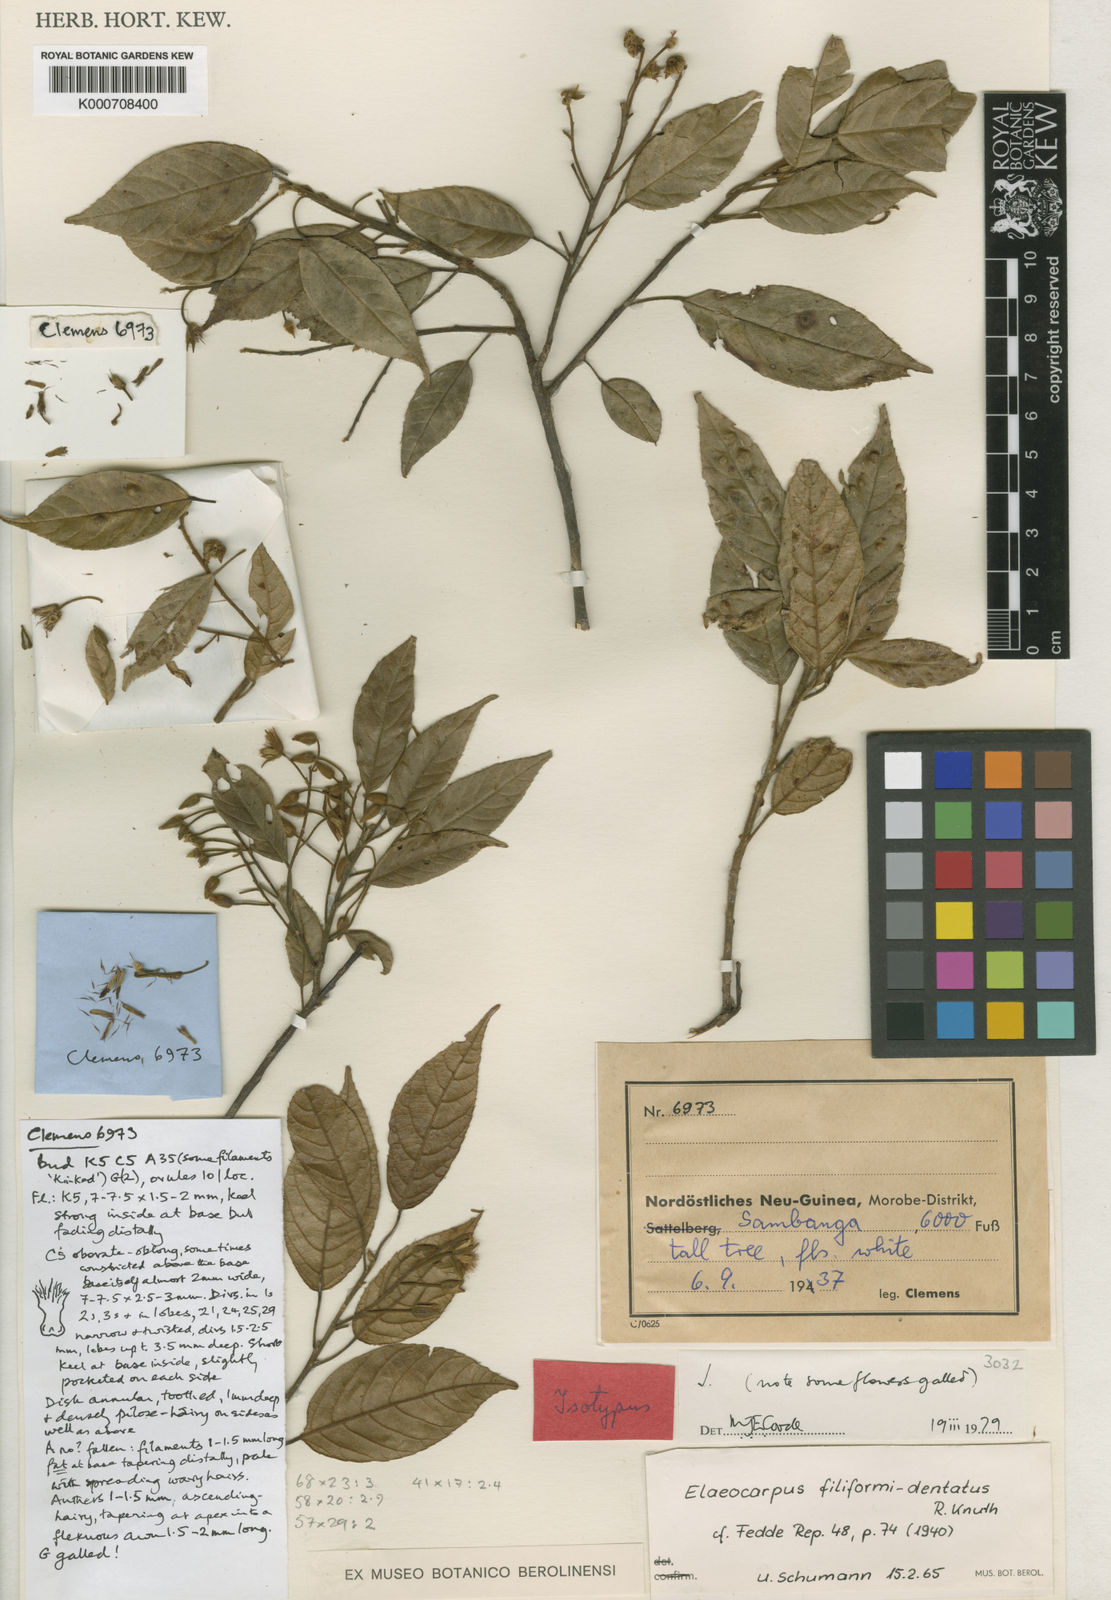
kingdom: Plantae
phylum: Tracheophyta
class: Magnoliopsida
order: Oxalidales
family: Elaeocarpaceae
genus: Elaeocarpus
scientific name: Elaeocarpus filiformidentatus
